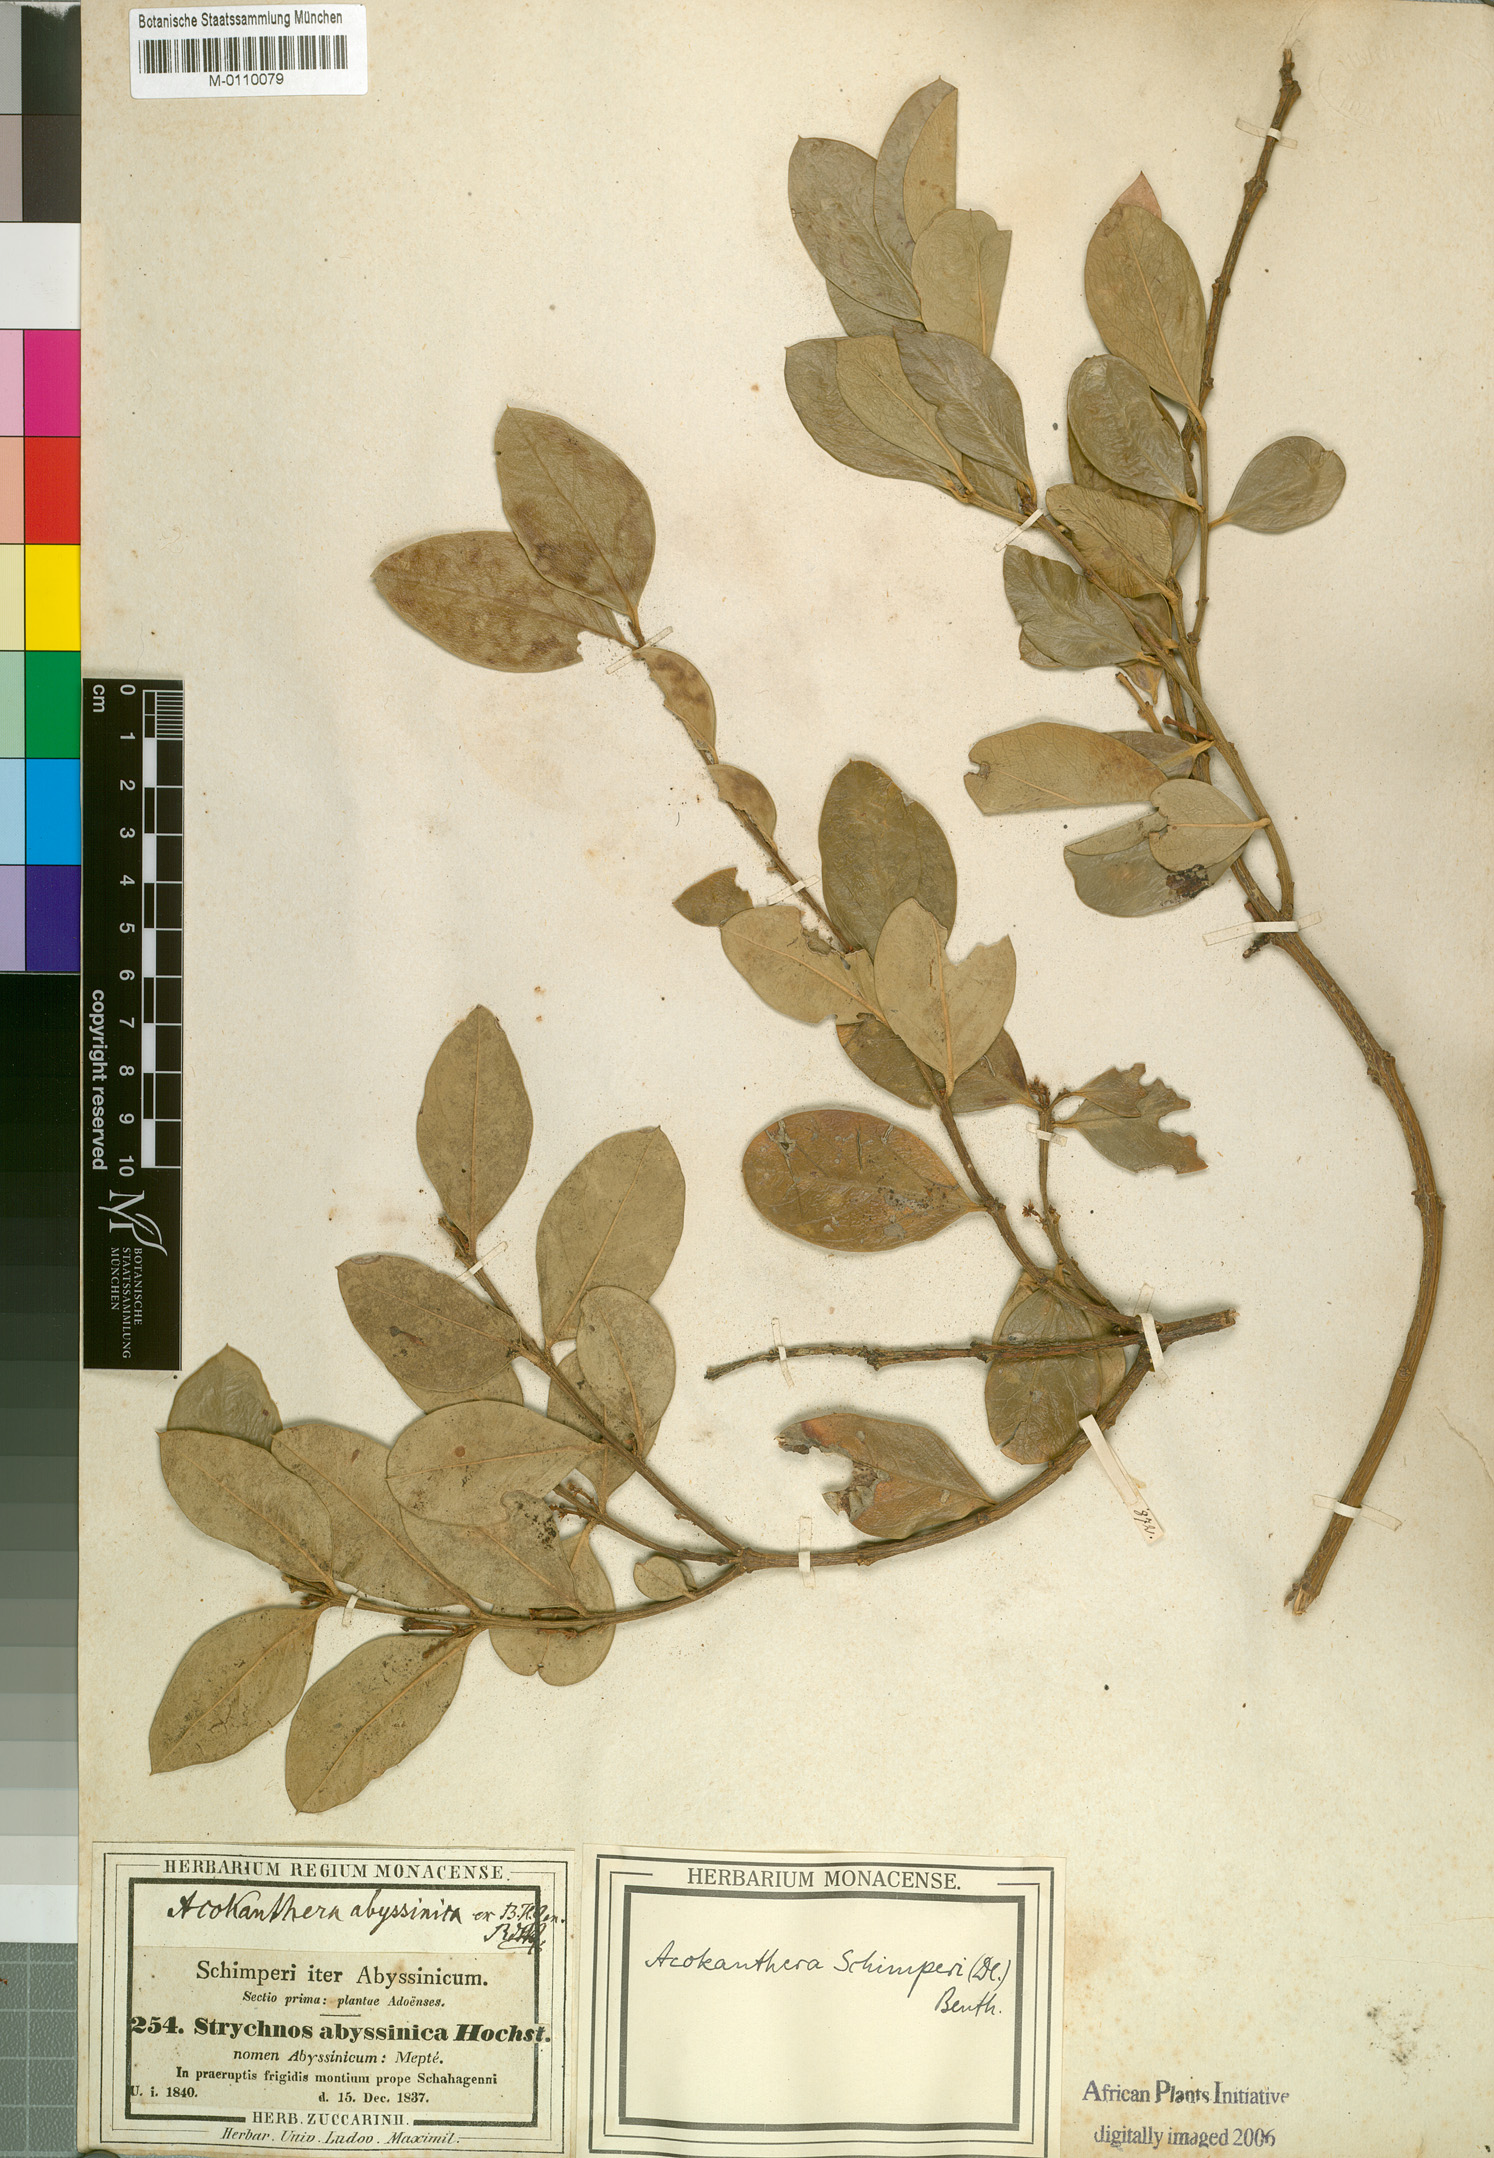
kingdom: Plantae
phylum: Tracheophyta
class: Magnoliopsida
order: Gentianales
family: Apocynaceae
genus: Acokanthera
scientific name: Acokanthera schimperi
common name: Arrow-poison-tree
